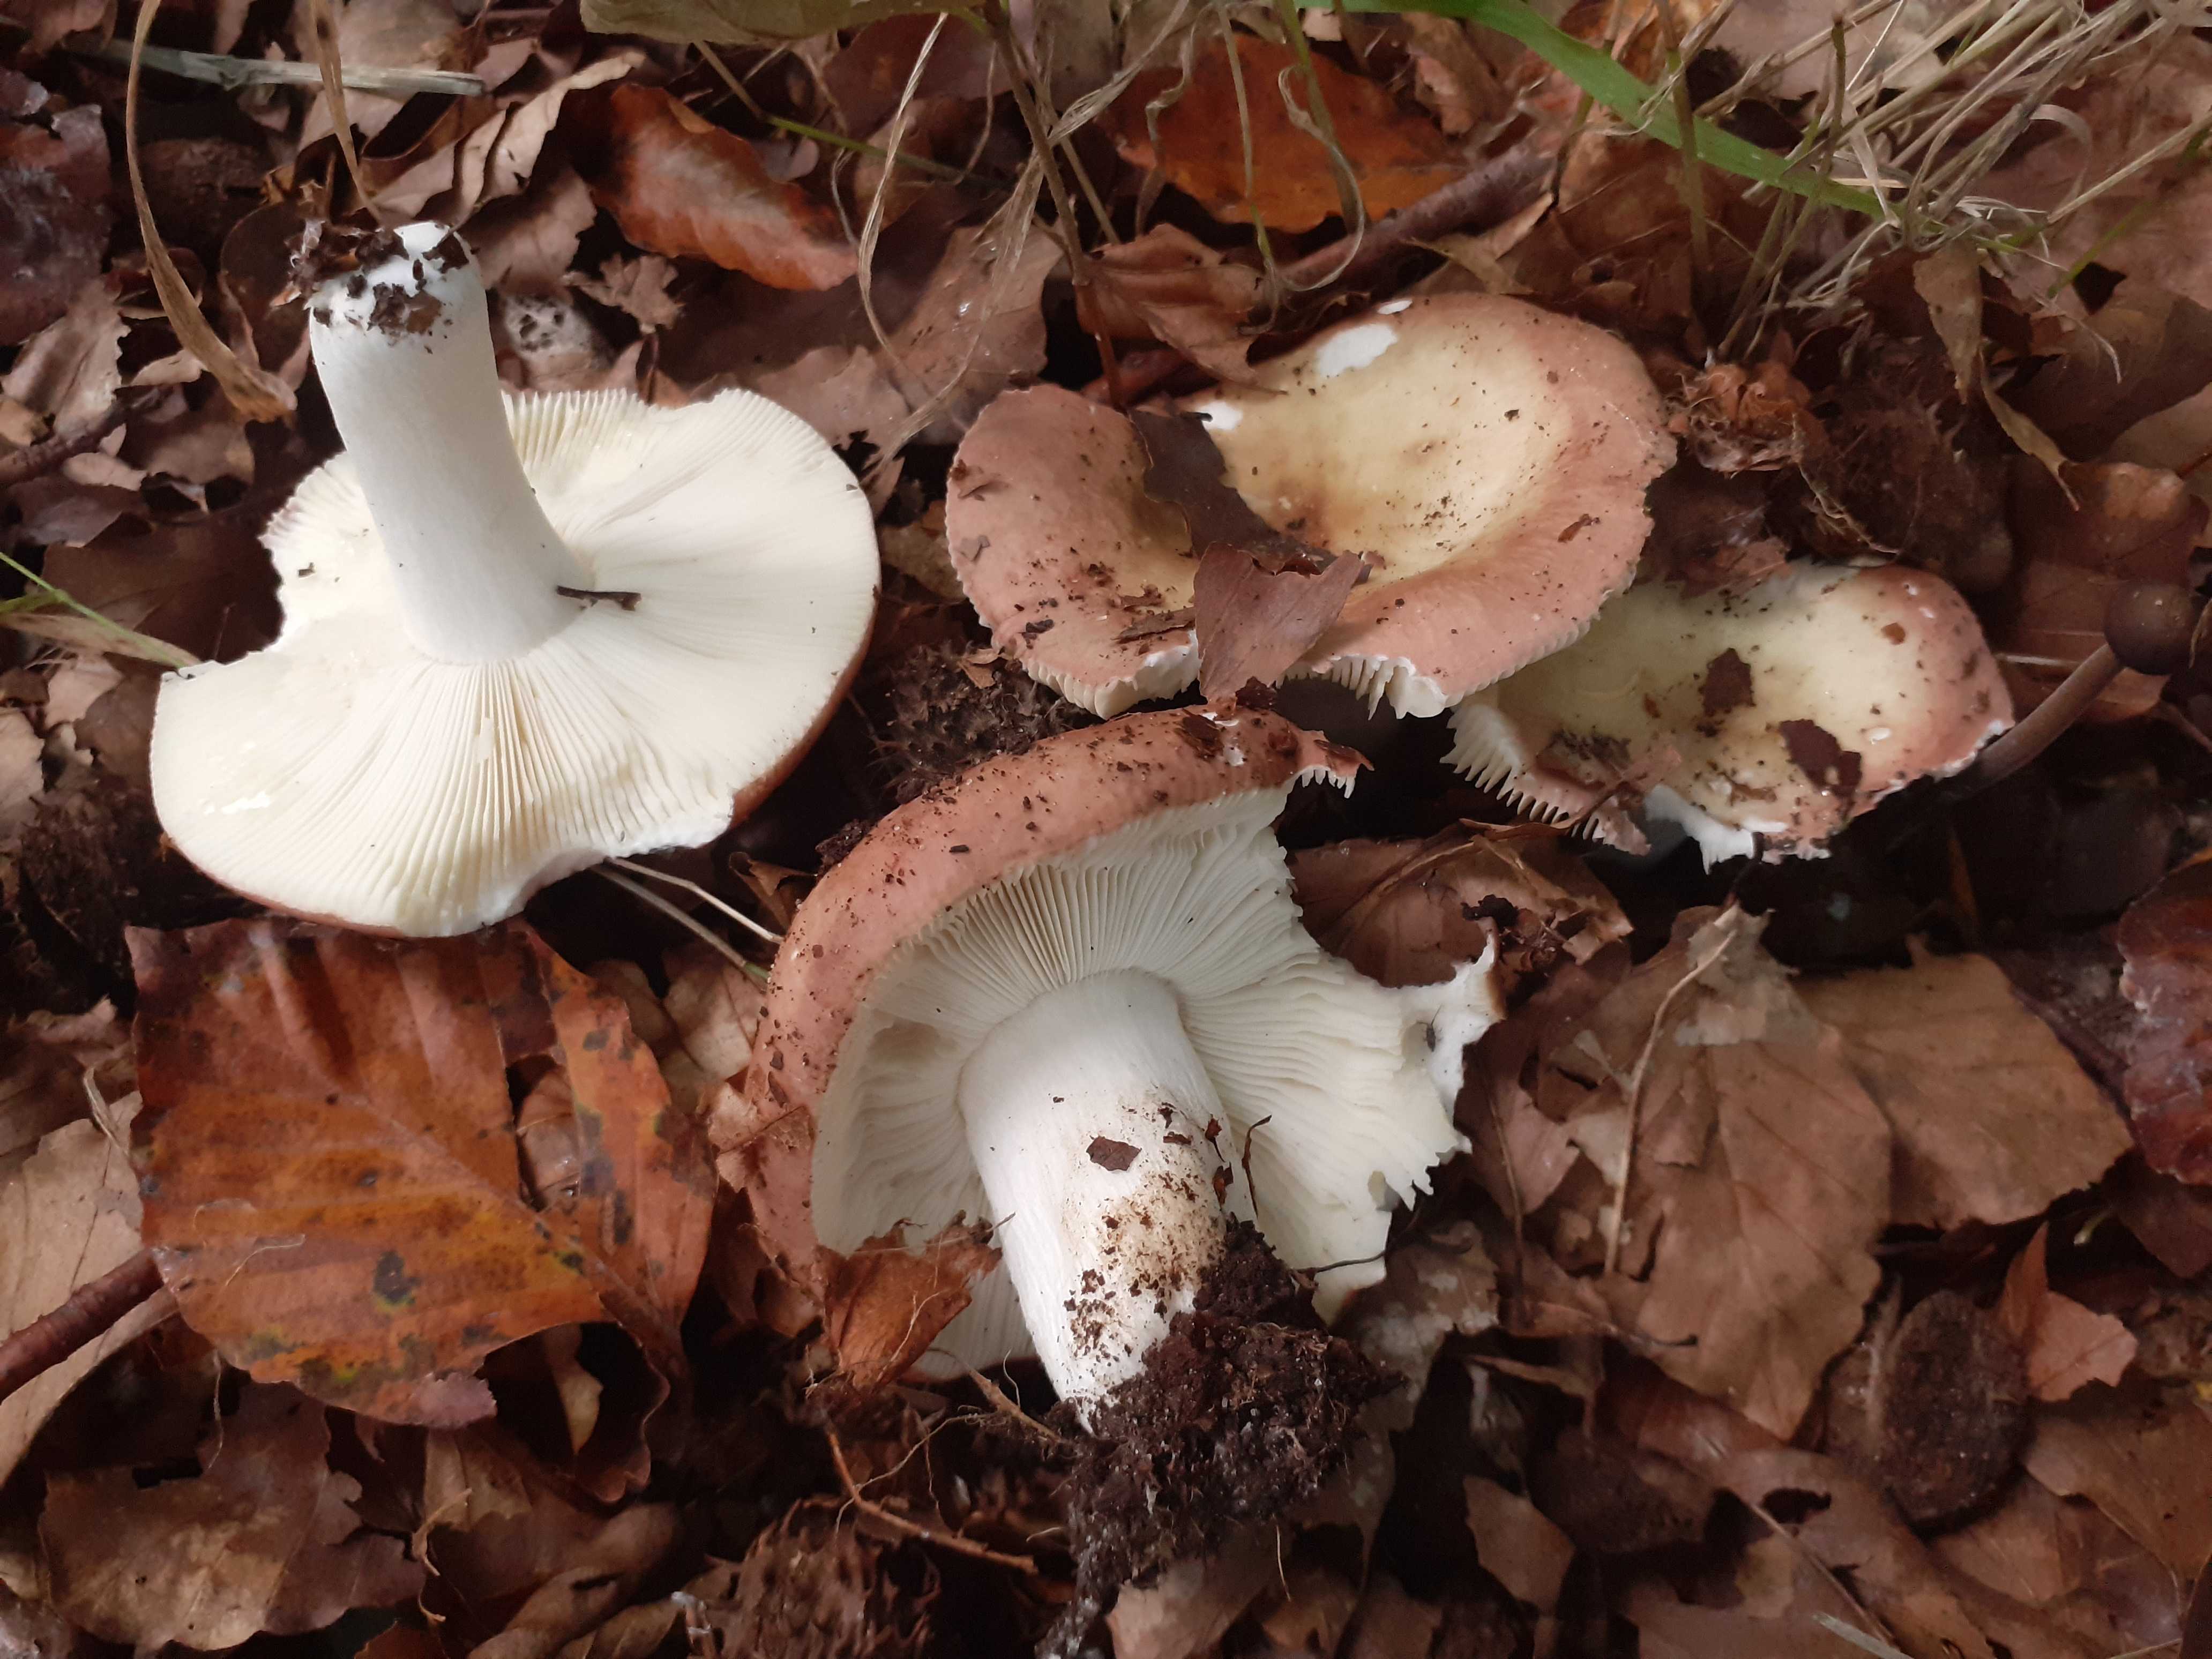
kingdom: Fungi
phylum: Basidiomycota
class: Agaricomycetes
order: Russulales
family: Russulaceae
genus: Russula
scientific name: Russula vesca
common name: spiselig skørhat
